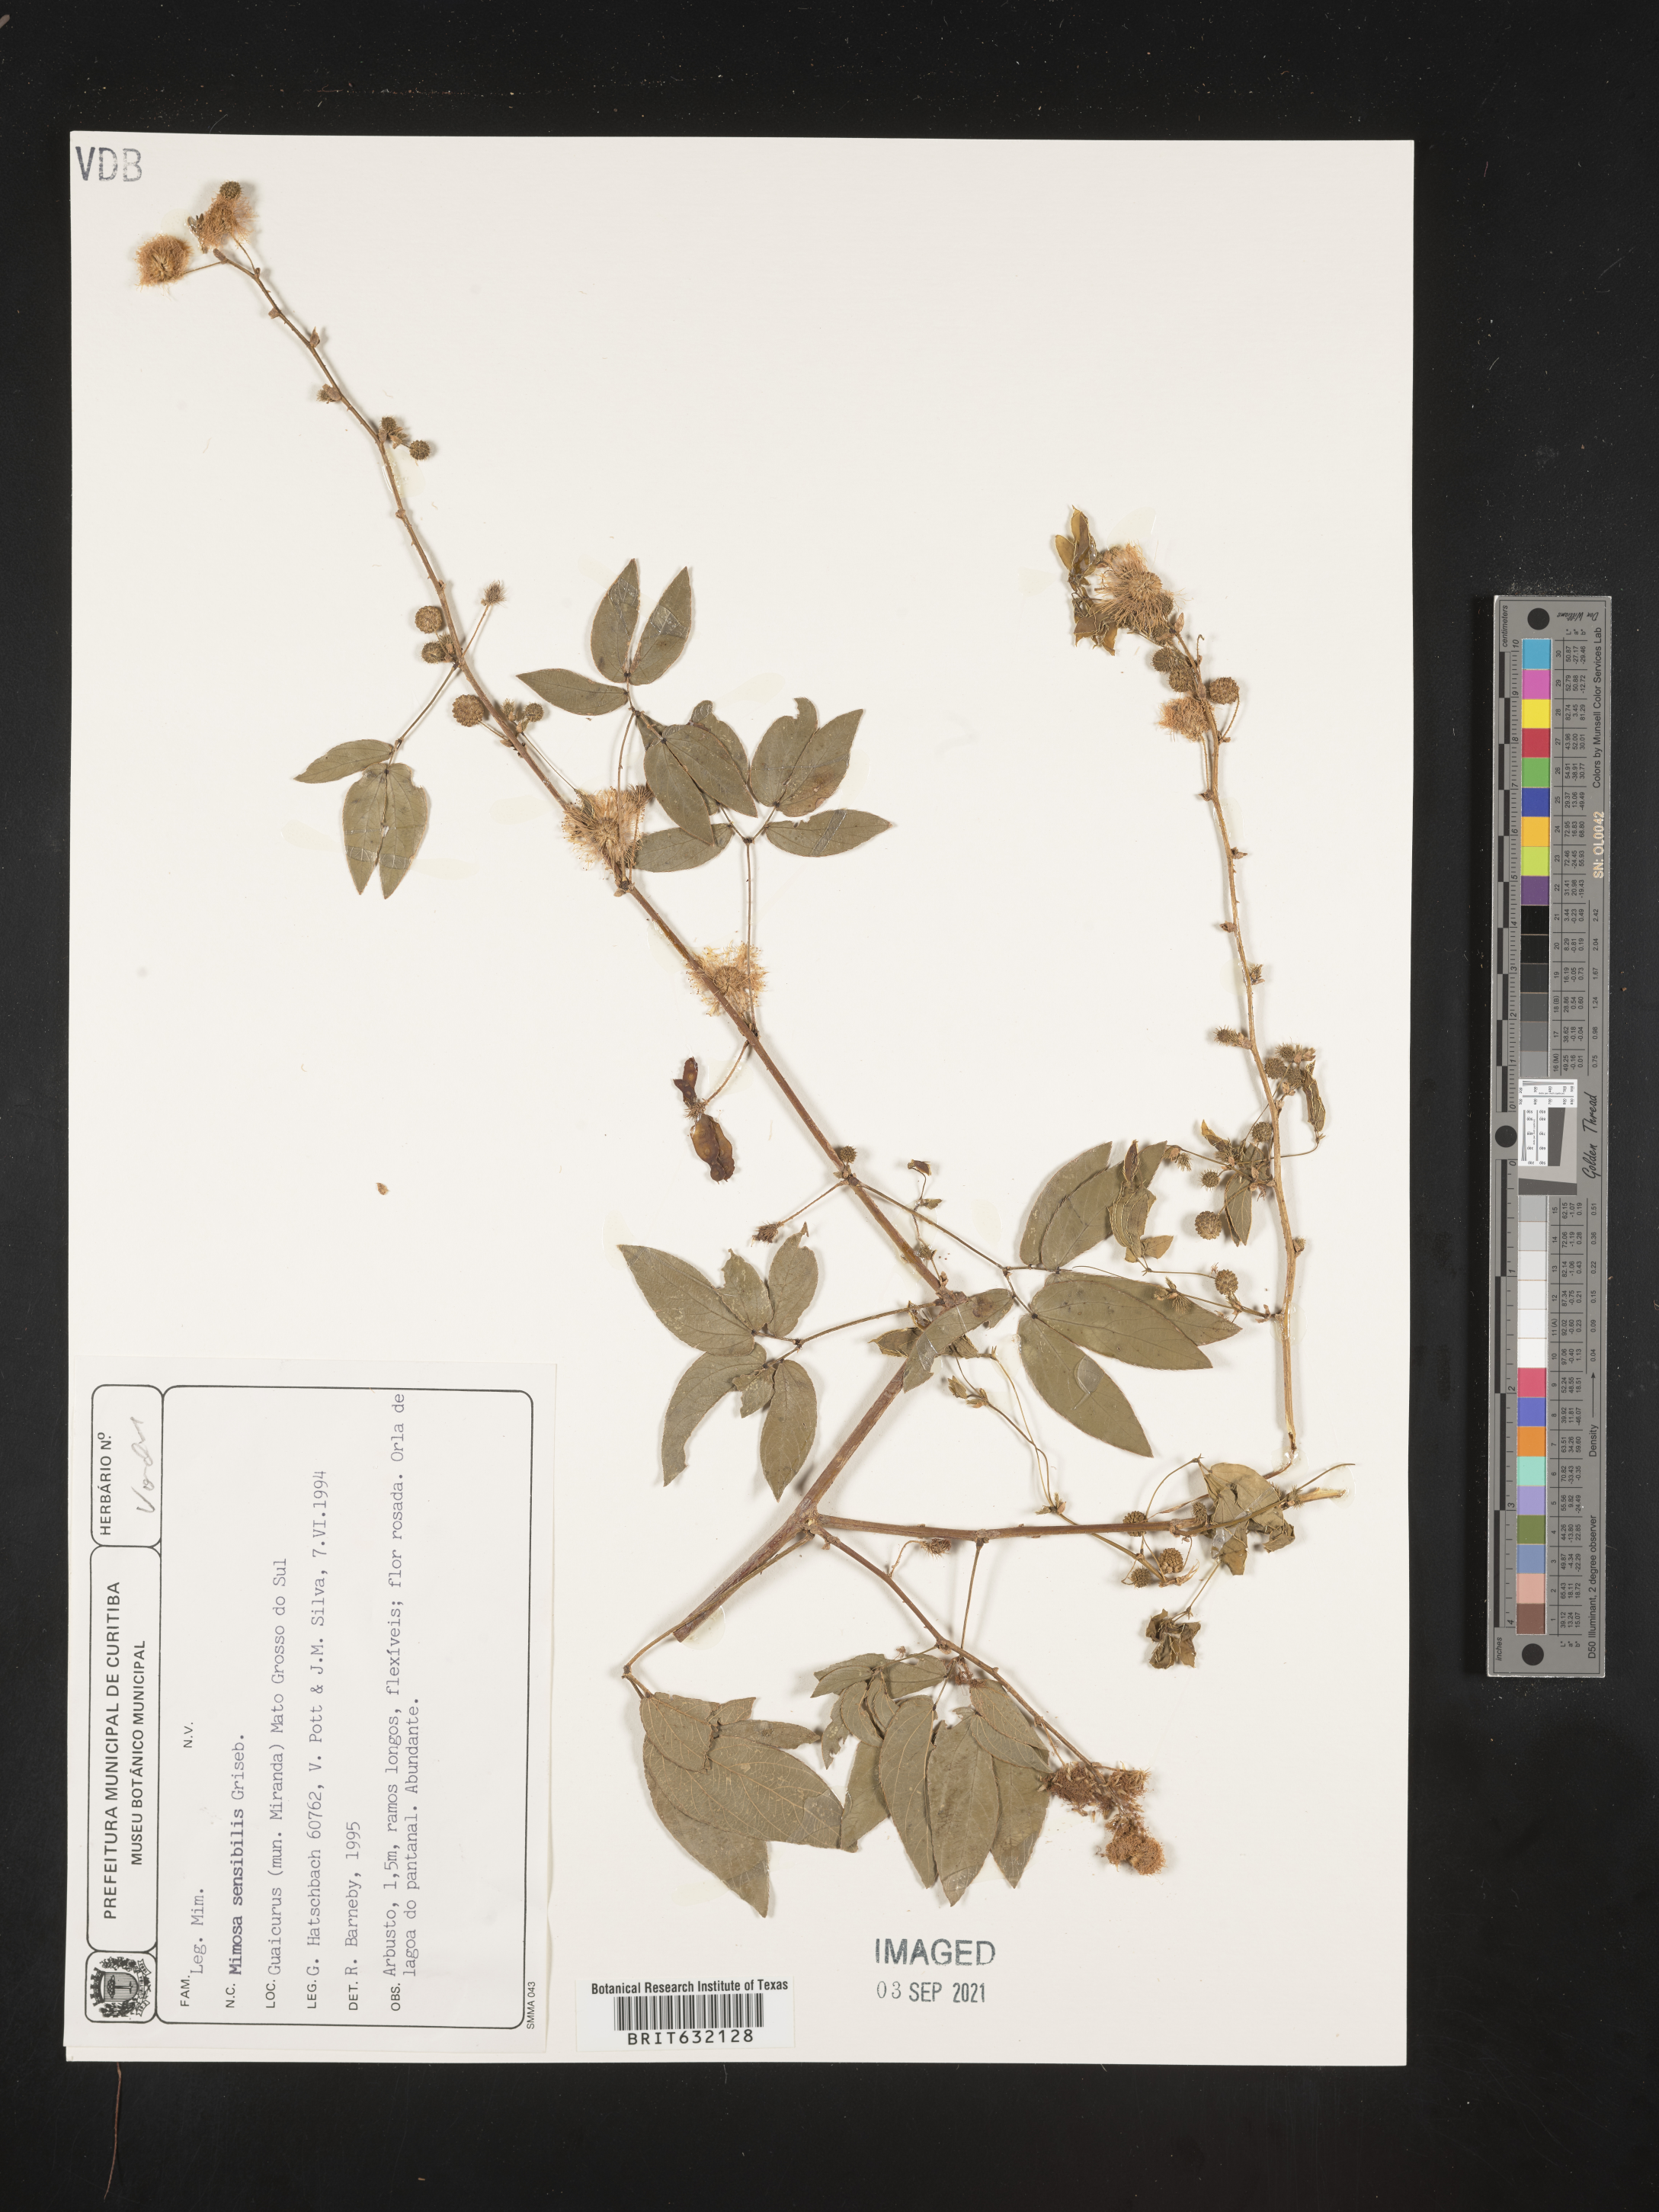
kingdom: Plantae
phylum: Tracheophyta
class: Magnoliopsida
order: Fabales
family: Fabaceae
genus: Mimosa
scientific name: Mimosa
